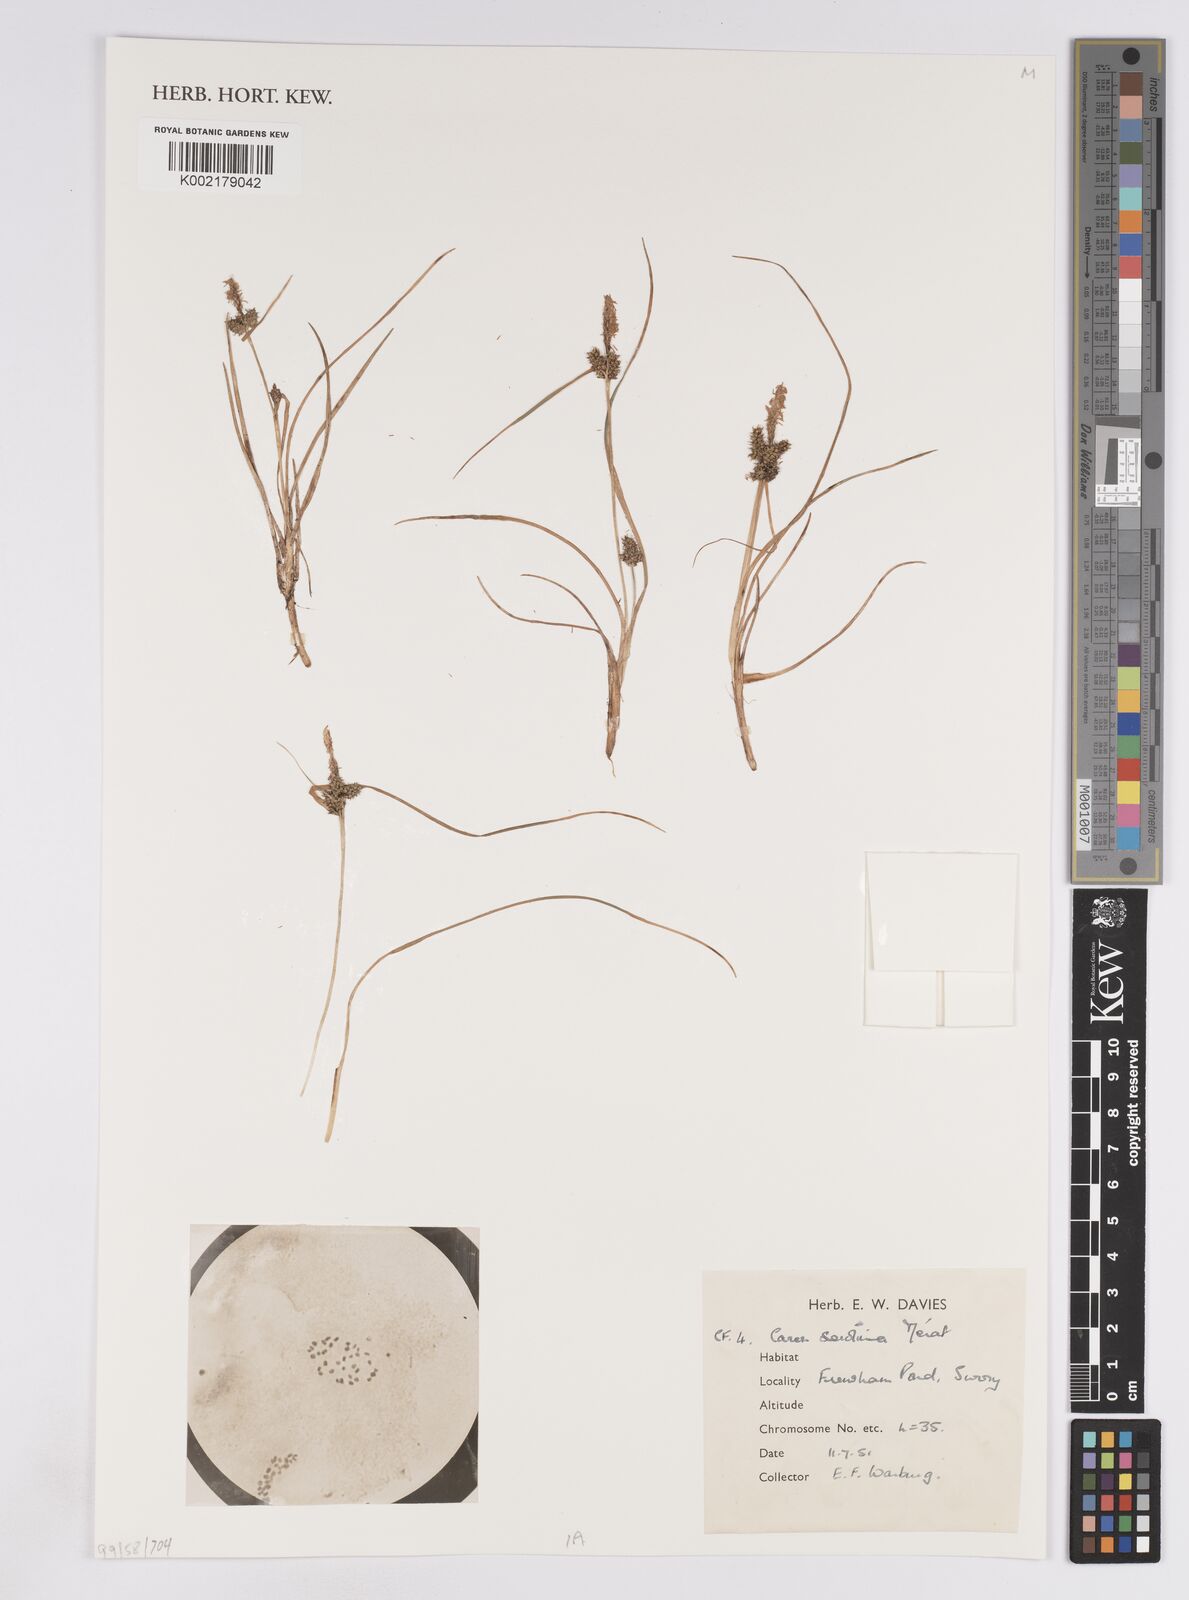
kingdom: Plantae
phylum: Tracheophyta
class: Liliopsida
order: Poales
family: Cyperaceae
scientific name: Cyperaceae
